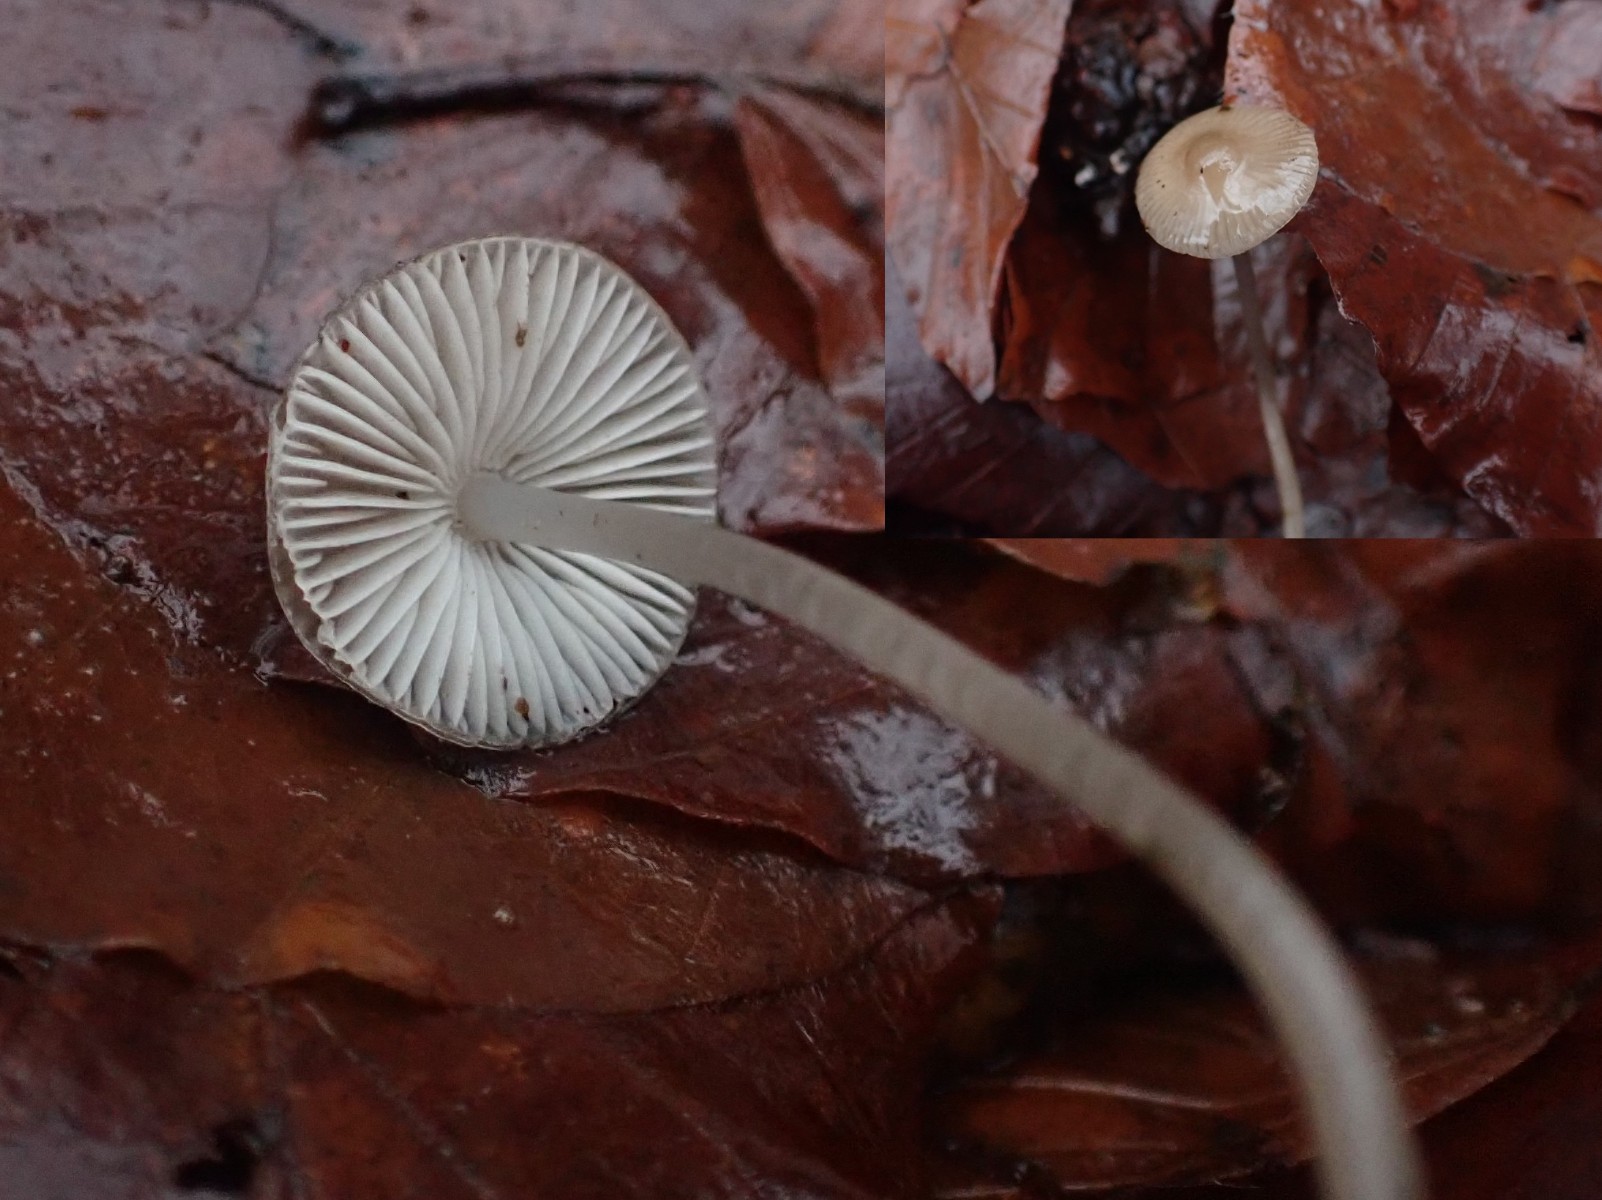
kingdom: Fungi
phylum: Basidiomycota
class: Agaricomycetes
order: Agaricales
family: Mycenaceae
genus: Mycena
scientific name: Mycena
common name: huesvamp
